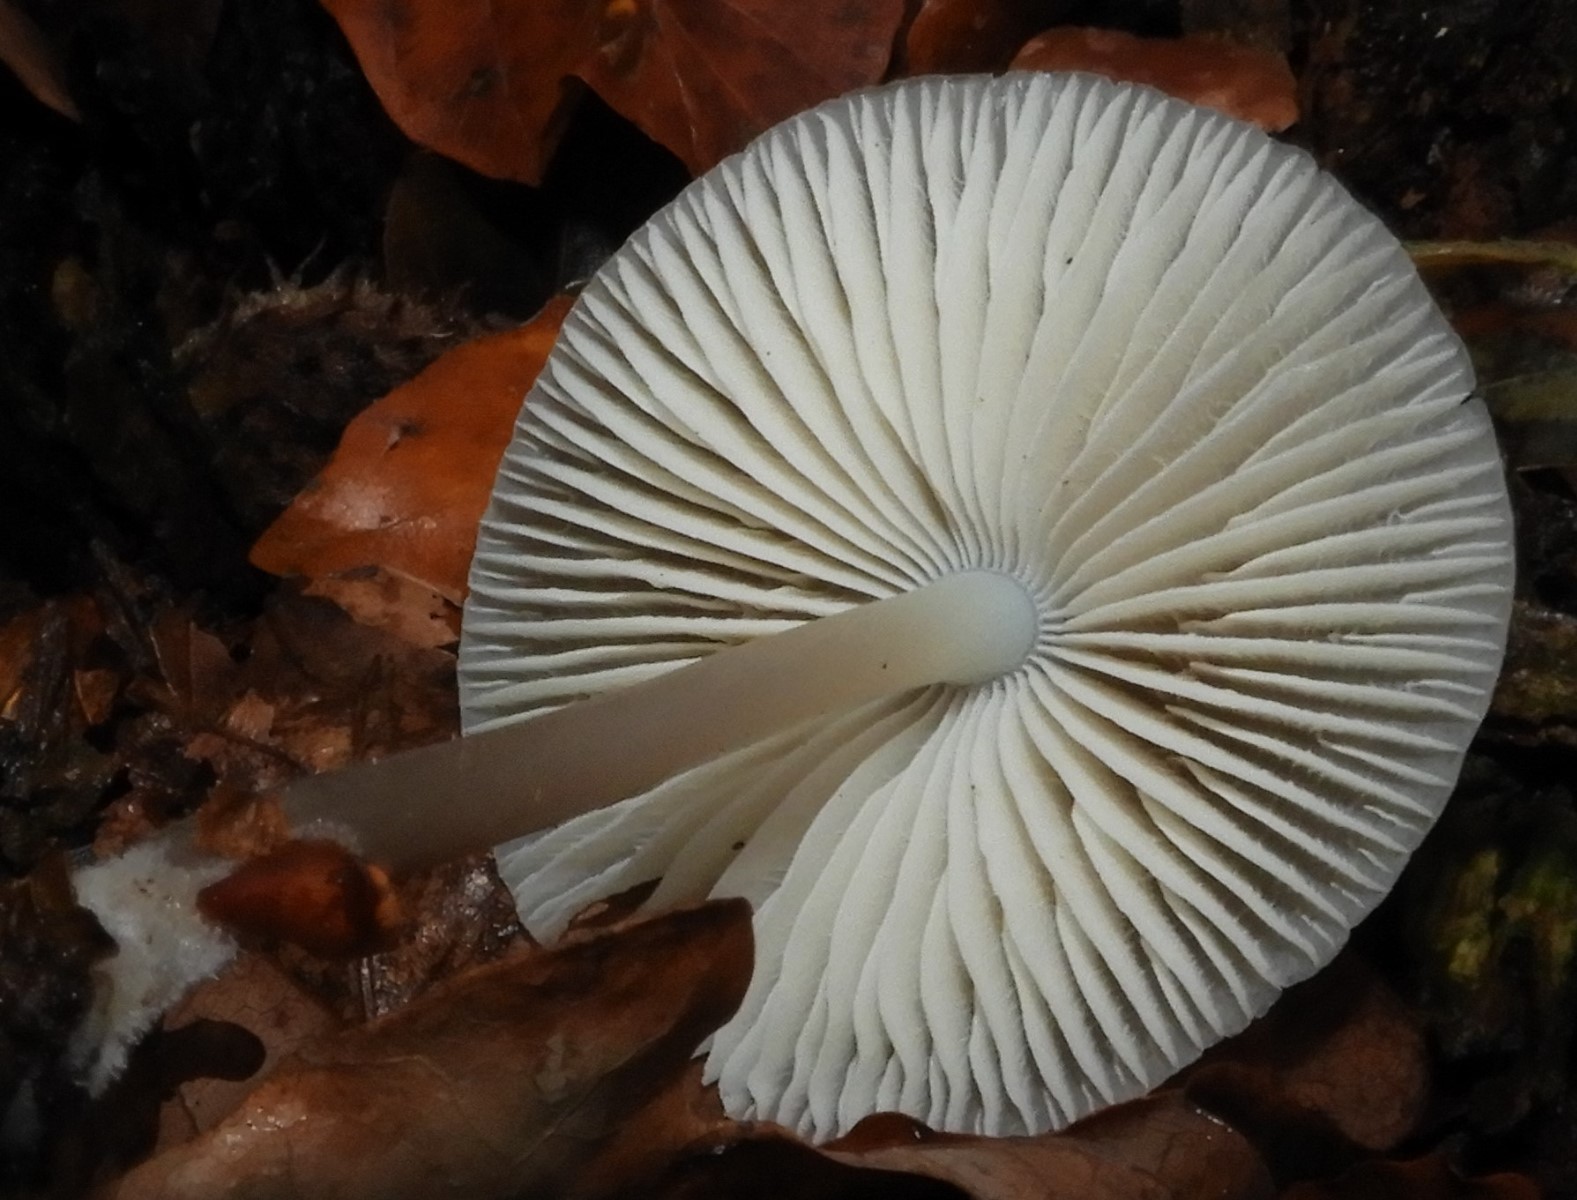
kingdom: Fungi
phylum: Basidiomycota
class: Agaricomycetes
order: Agaricales
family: Mycenaceae
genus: Mycena
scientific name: Mycena galericulata
